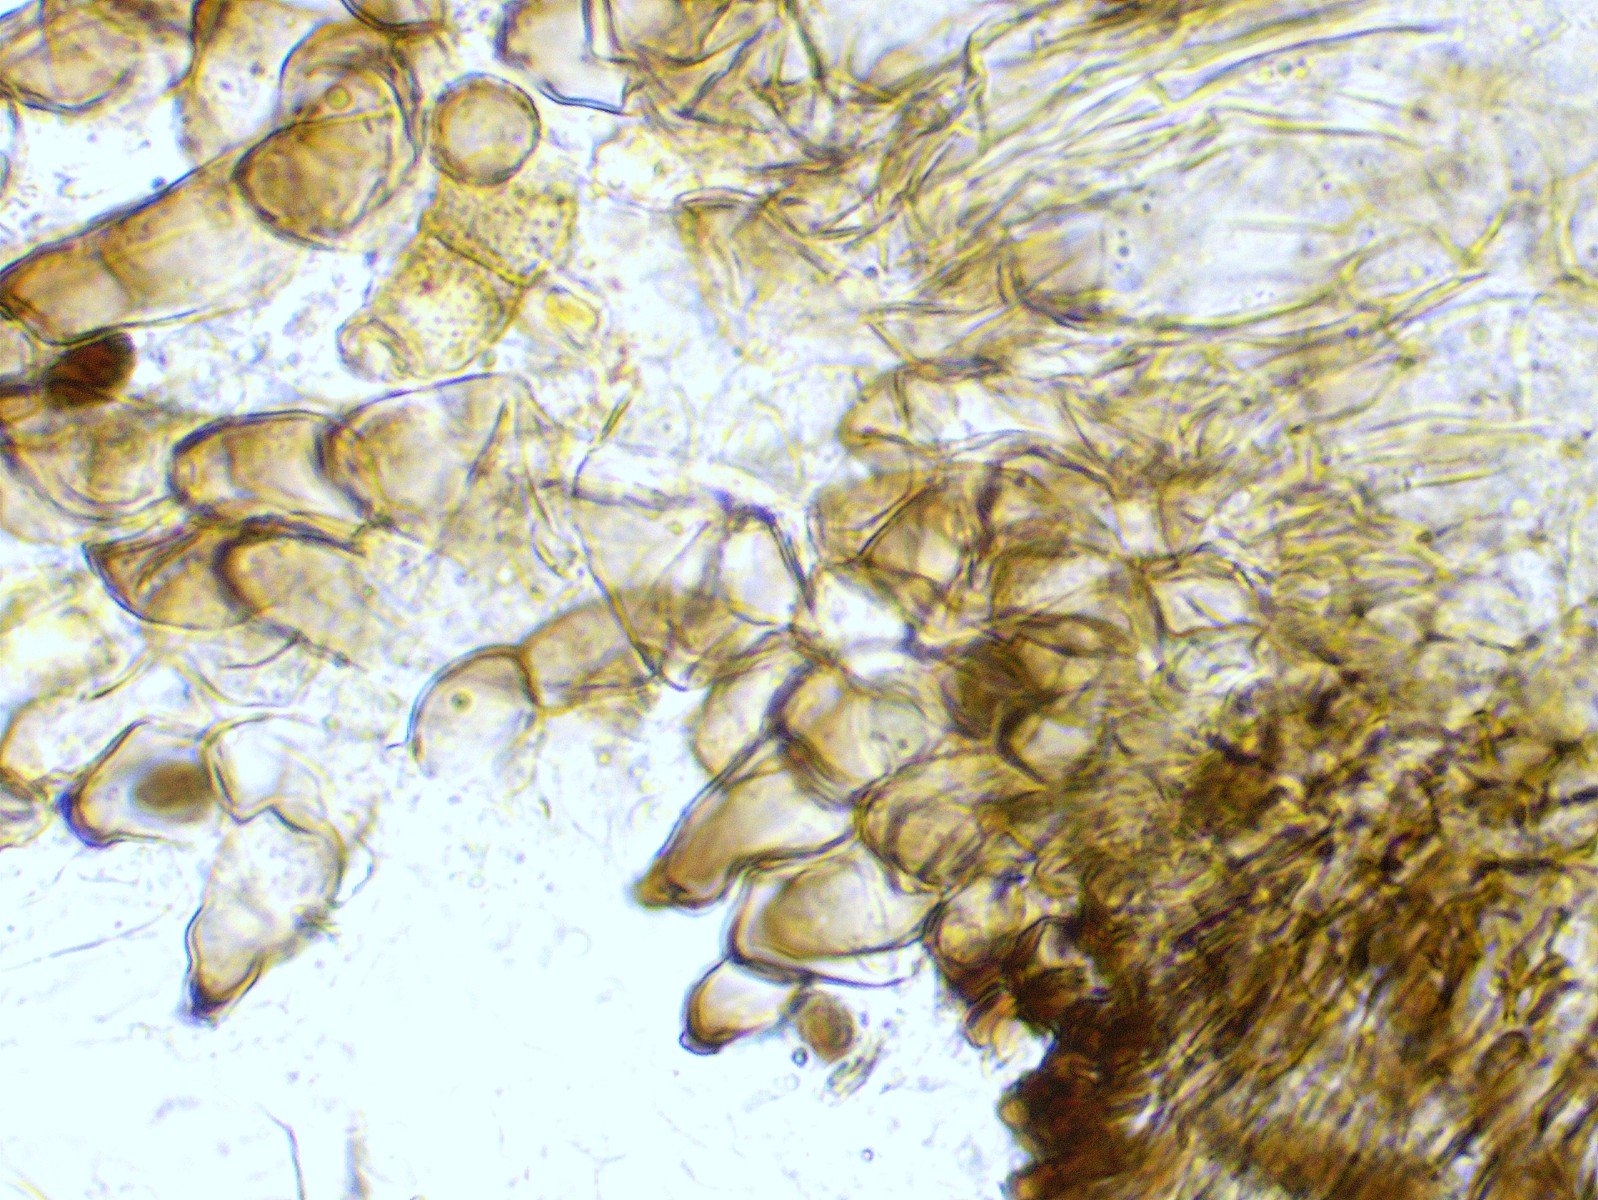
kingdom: Fungi
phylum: Ascomycota
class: Sordariomycetes
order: Sordariales
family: Neoschizotheciaceae
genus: Neoschizothecium
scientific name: Neoschizothecium tetrasporum
